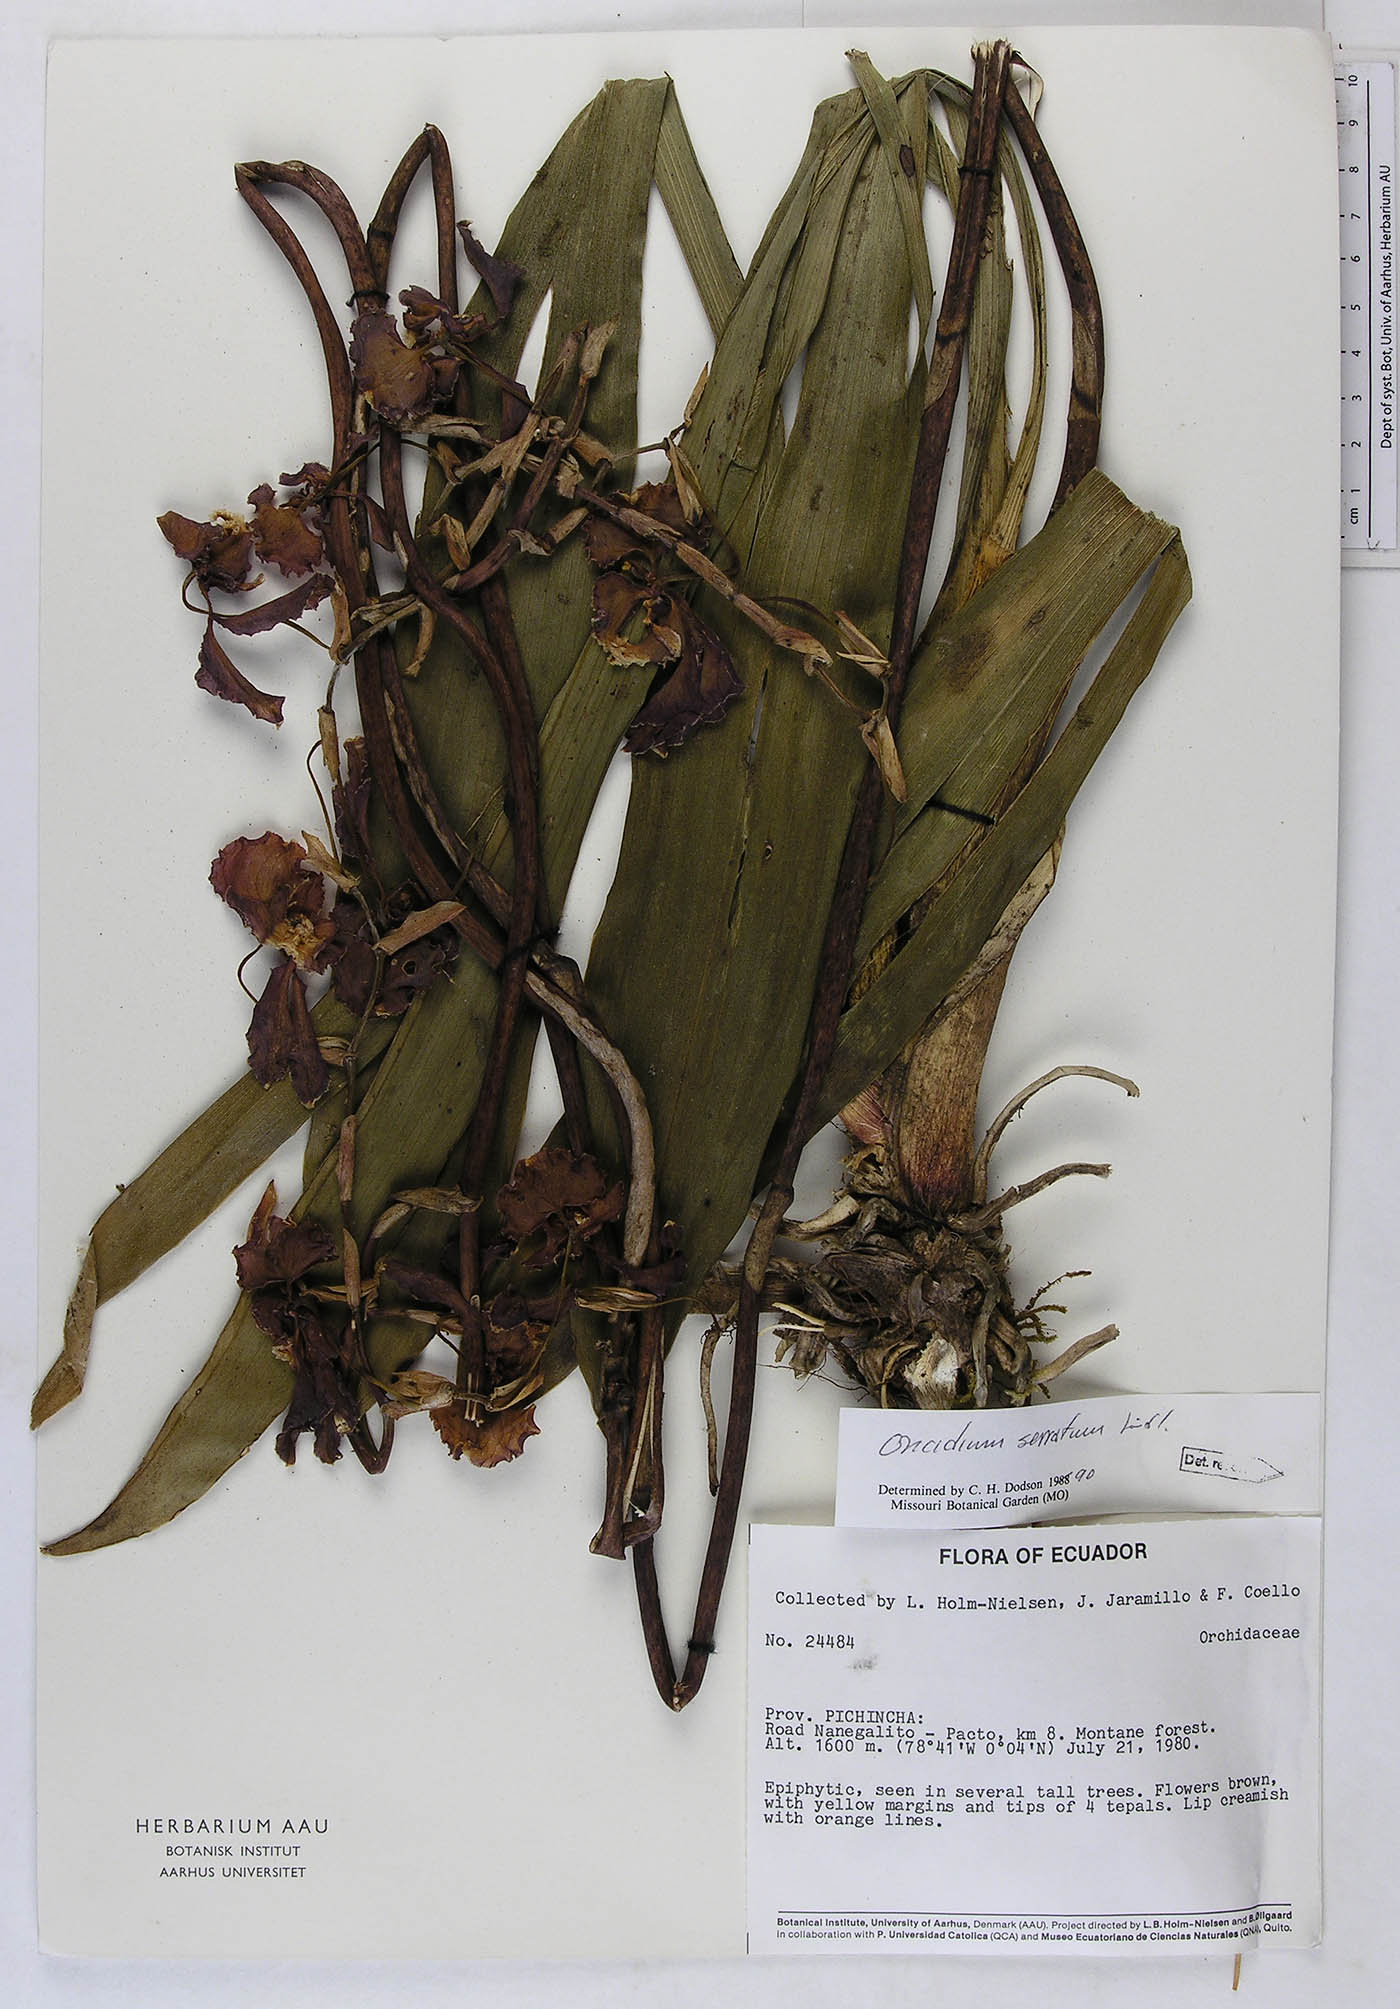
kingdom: Plantae
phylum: Tracheophyta
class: Liliopsida
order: Asparagales
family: Orchidaceae
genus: Cyrtochilum
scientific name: Cyrtochilum serratum
